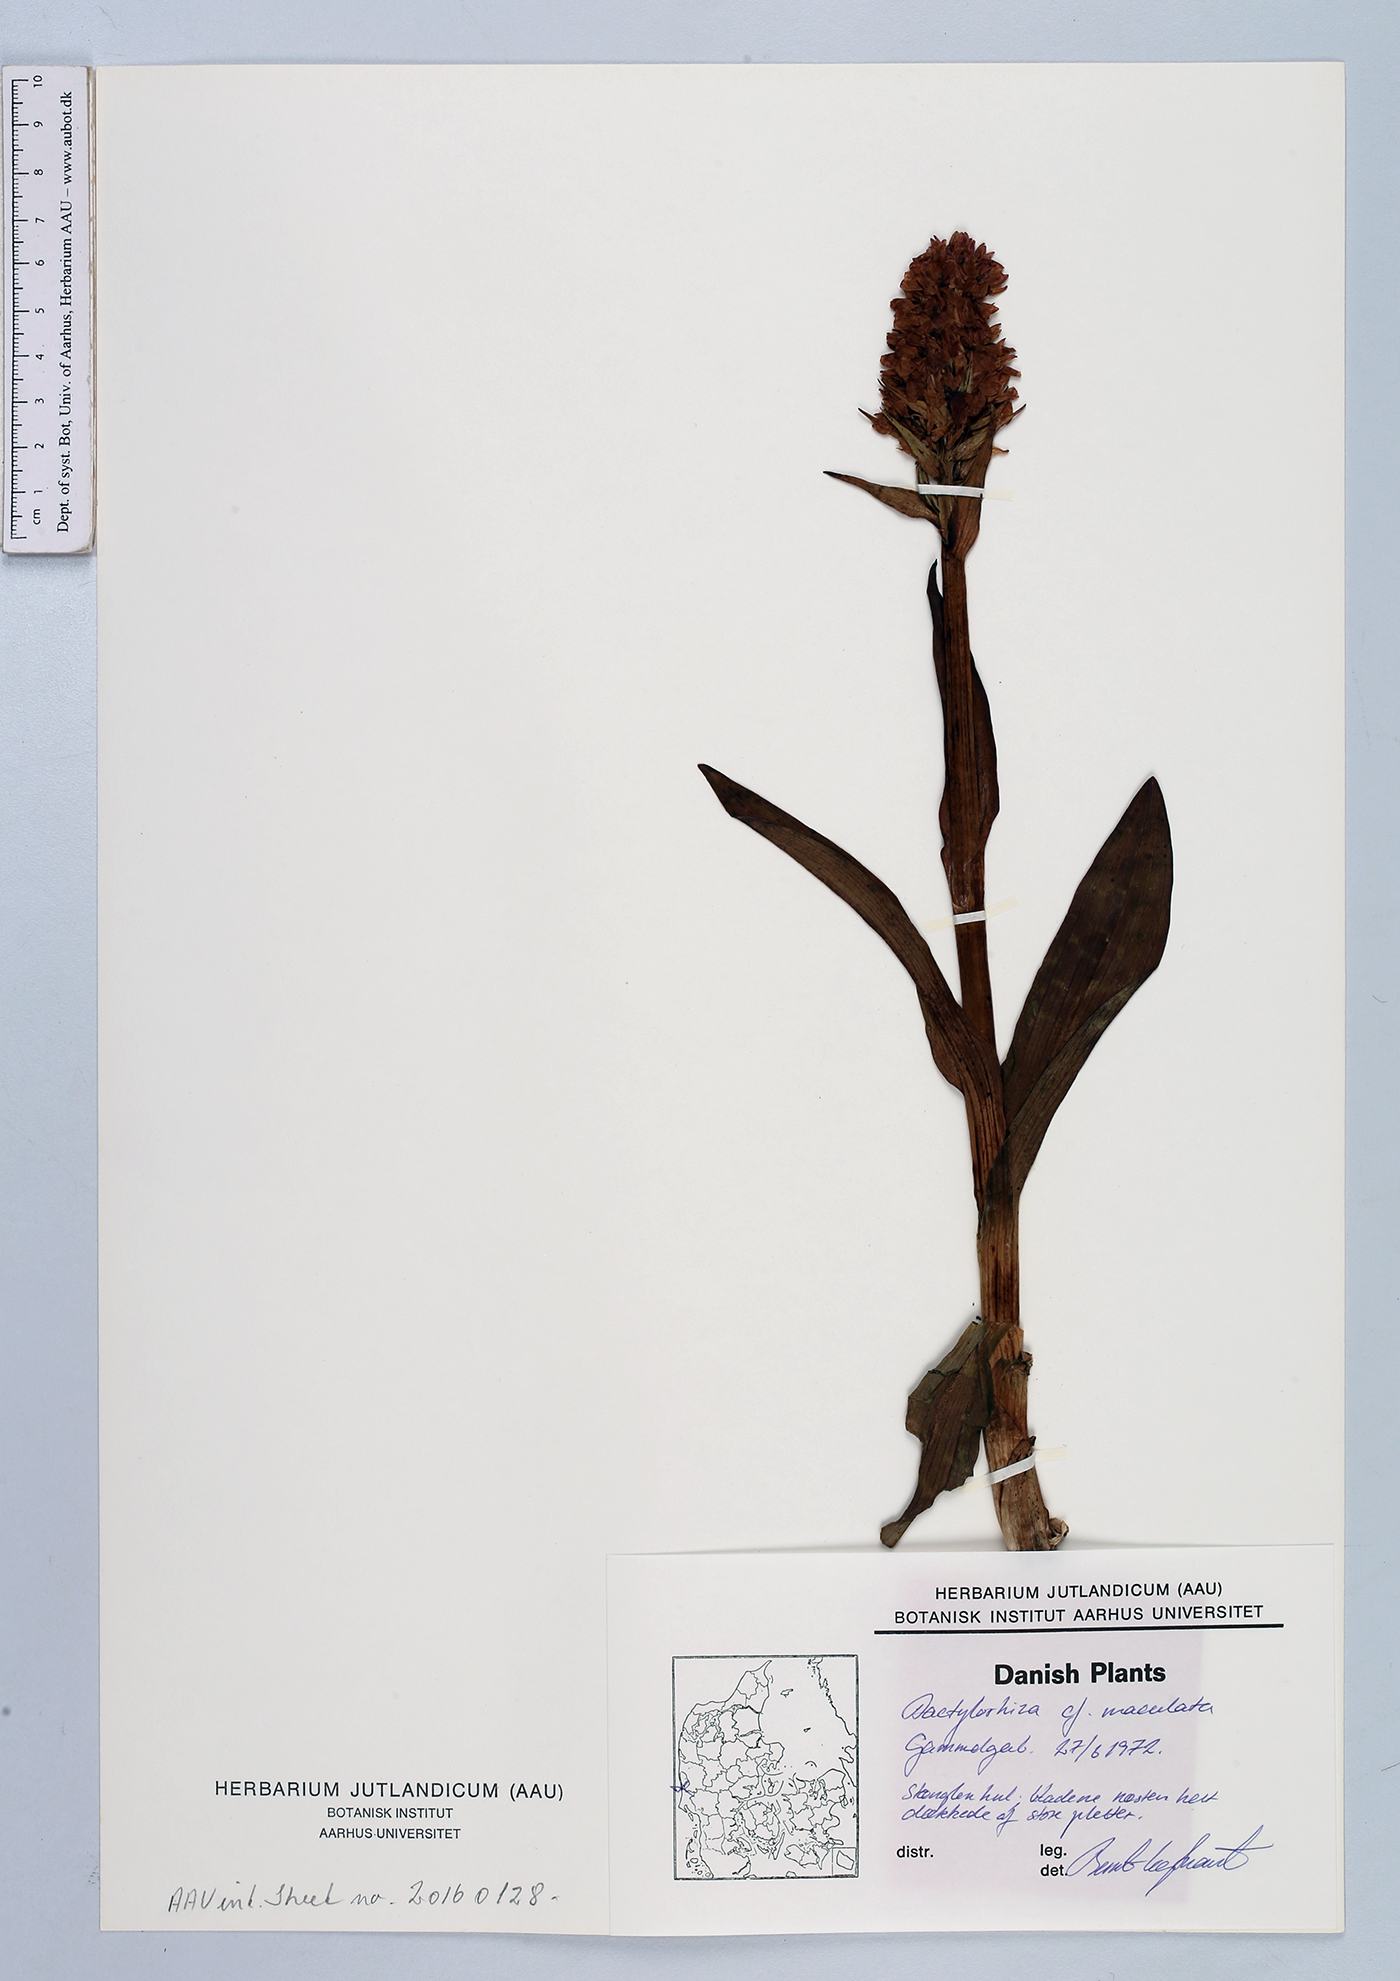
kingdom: Plantae
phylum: Tracheophyta
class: Liliopsida
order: Asparagales
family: Orchidaceae
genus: Dactylorhiza
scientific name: Dactylorhiza maculata
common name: Heath spotted-orchid
